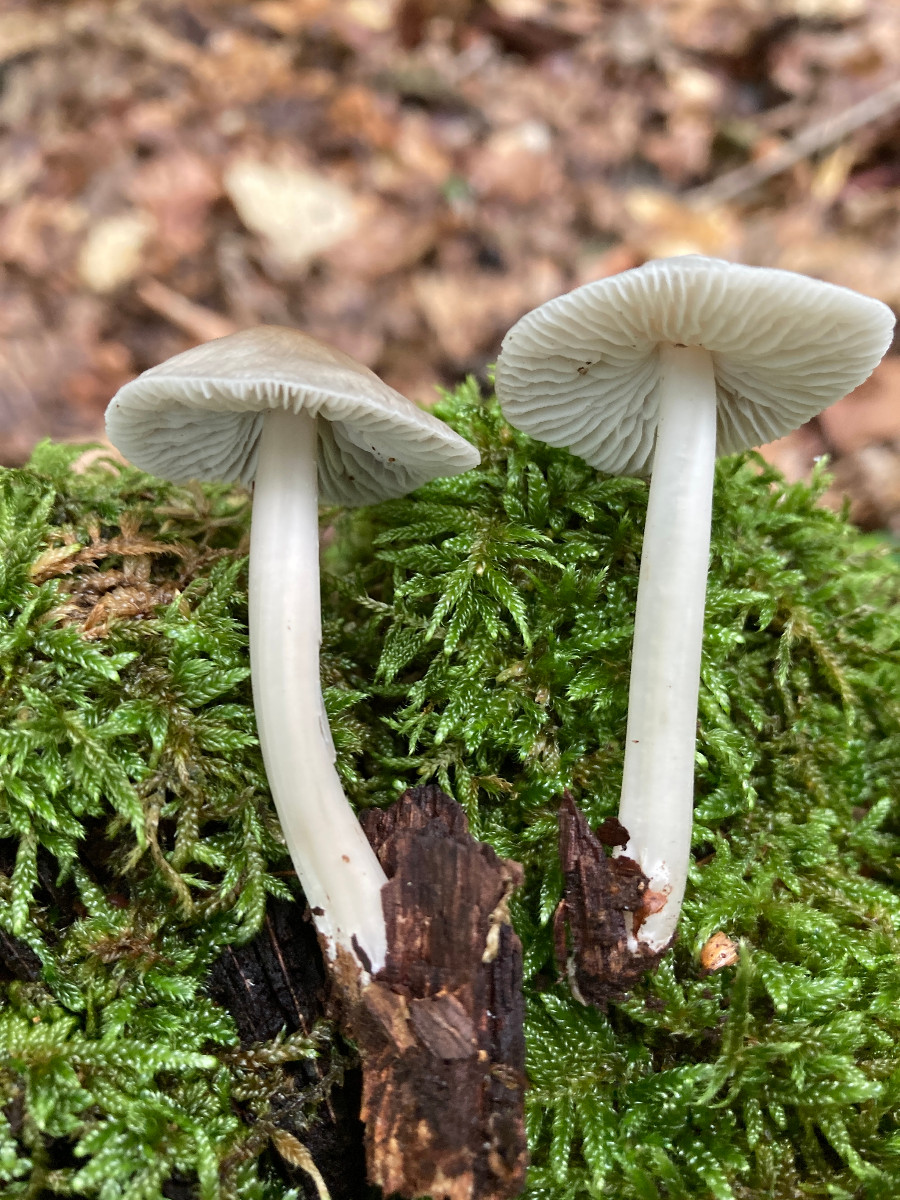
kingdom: Fungi
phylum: Basidiomycota
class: Agaricomycetes
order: Agaricales
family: Mycenaceae
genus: Mycena
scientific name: Mycena galericulata
